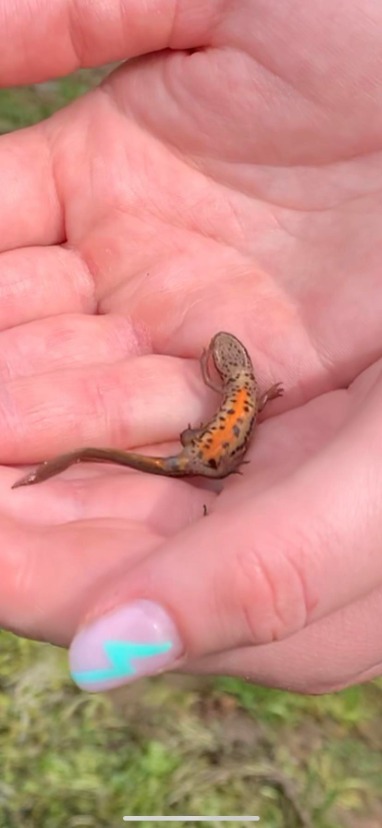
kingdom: Animalia
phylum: Chordata
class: Amphibia
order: Caudata
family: Salamandridae
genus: Lissotriton
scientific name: Lissotriton vulgaris
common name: Lille vandsalamander
